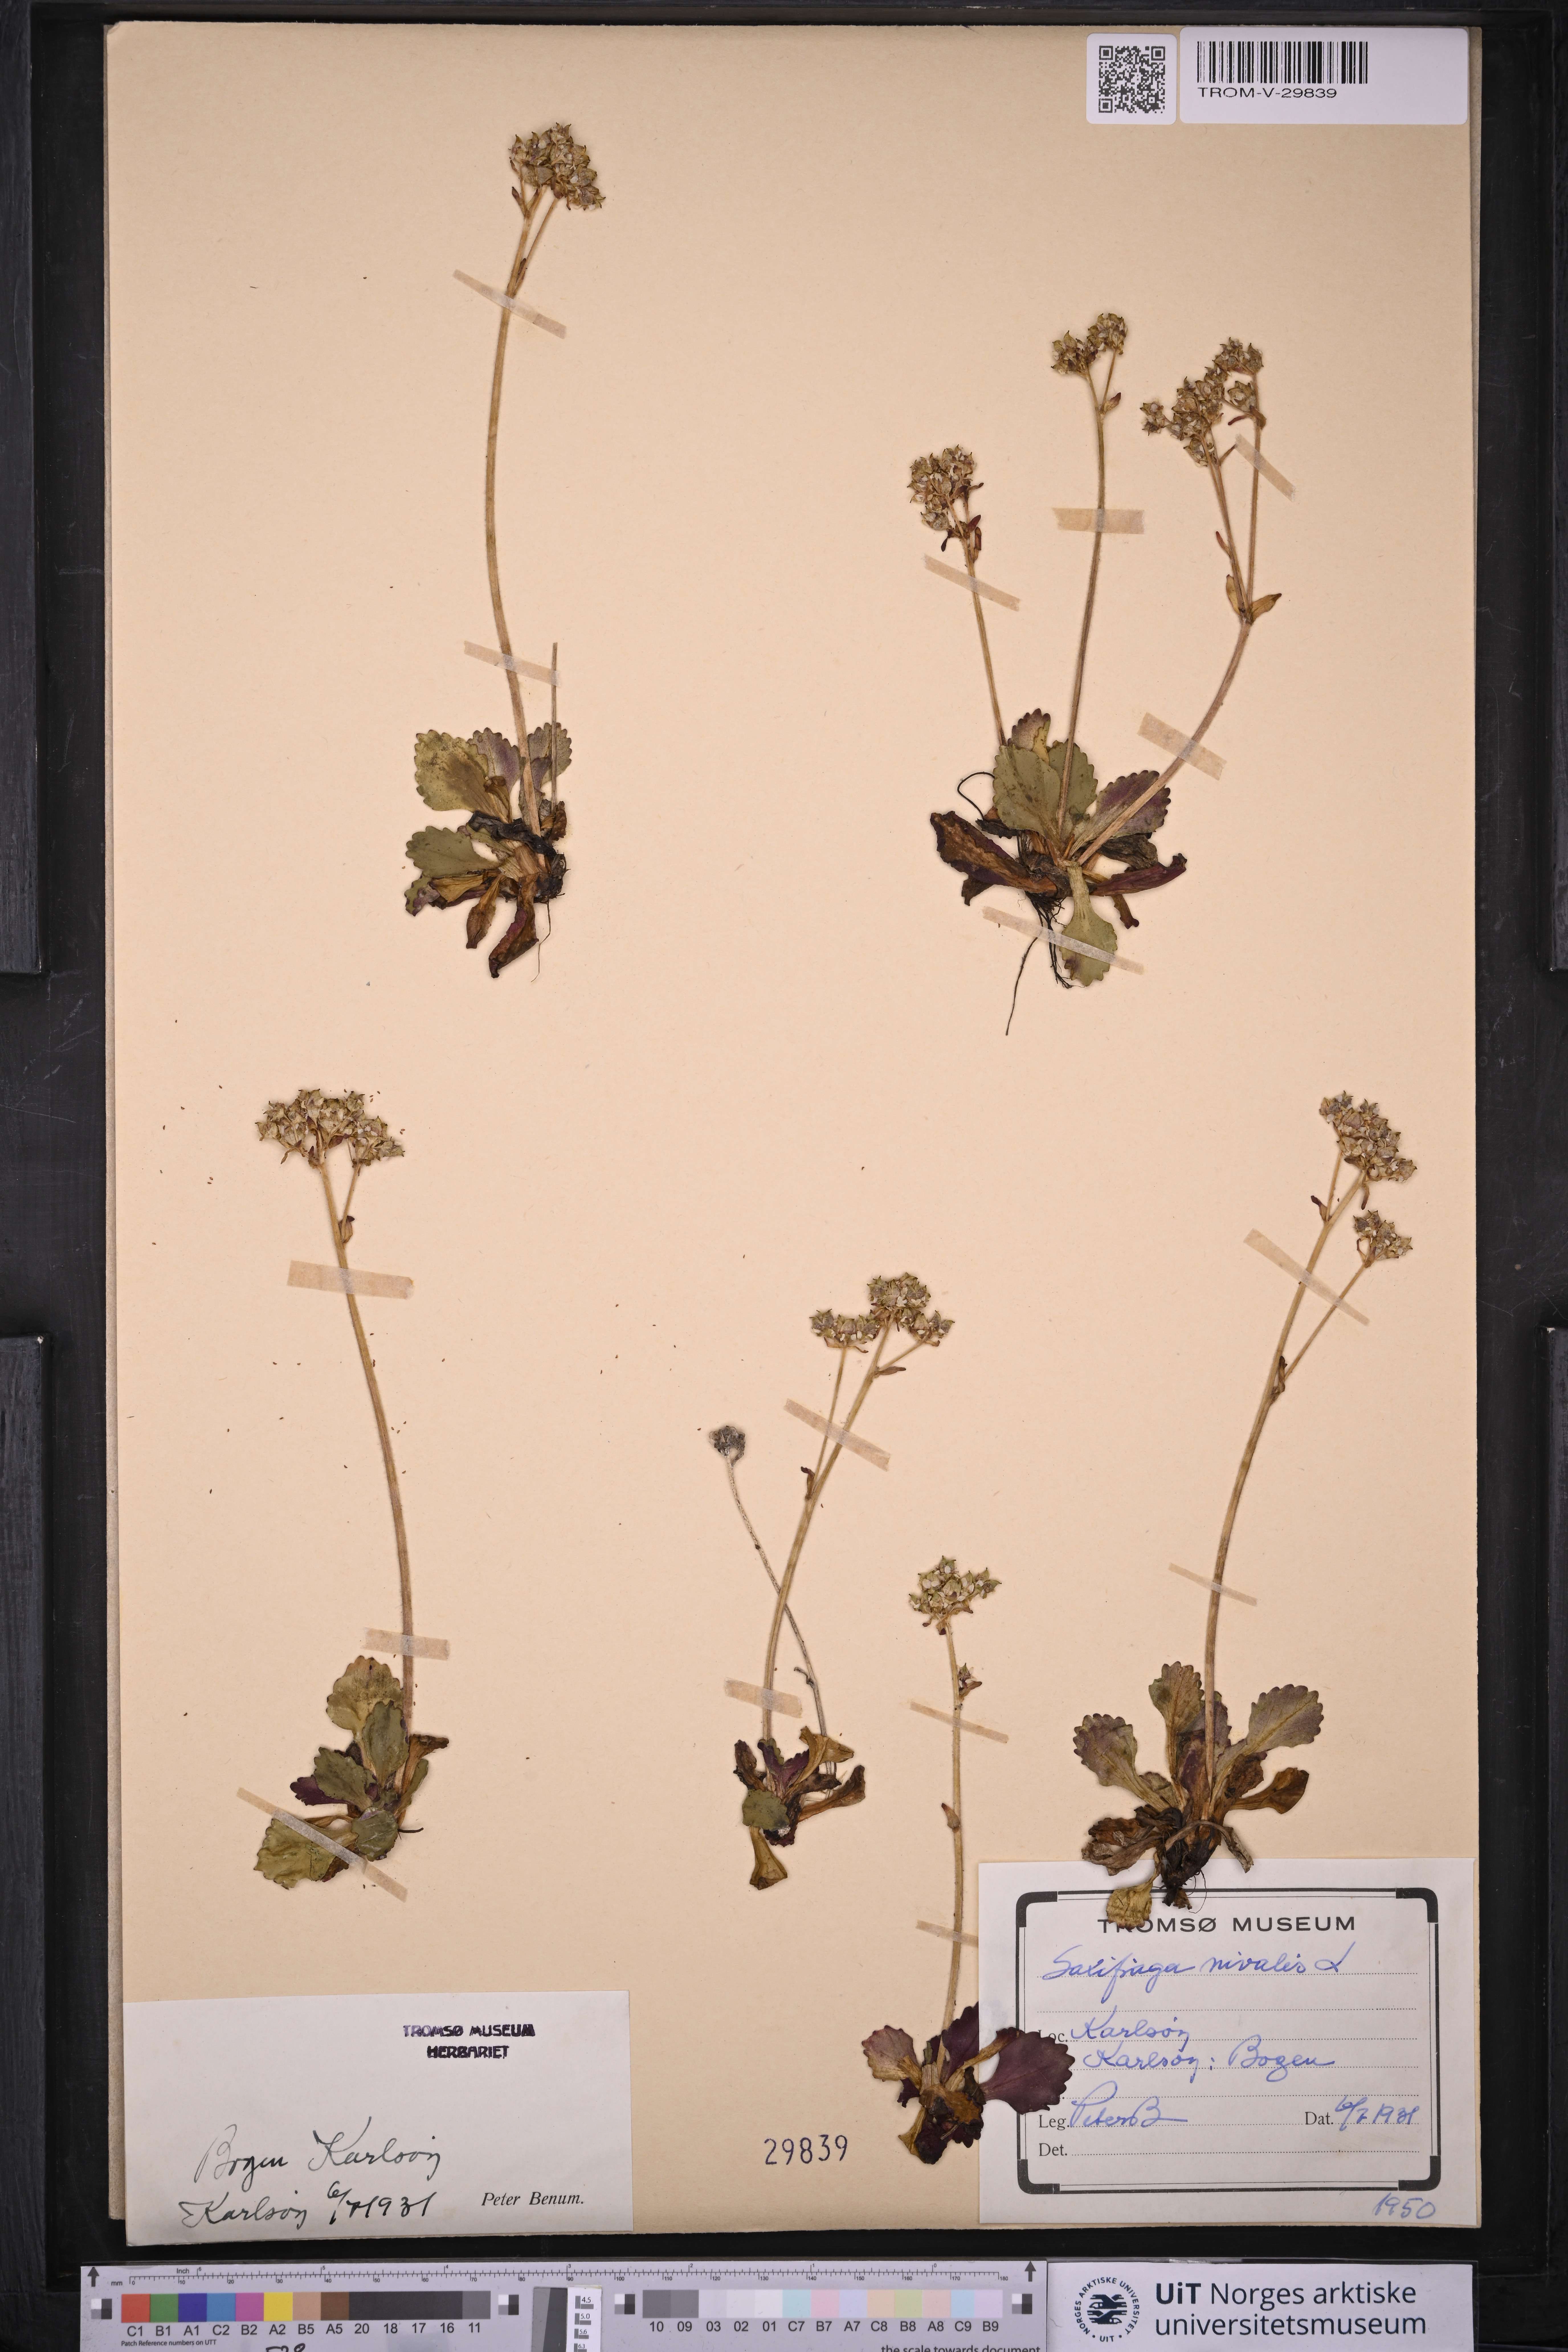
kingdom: Plantae
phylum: Tracheophyta
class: Magnoliopsida
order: Saxifragales
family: Saxifragaceae
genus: Micranthes
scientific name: Micranthes nivalis
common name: Alpine saxifrage
